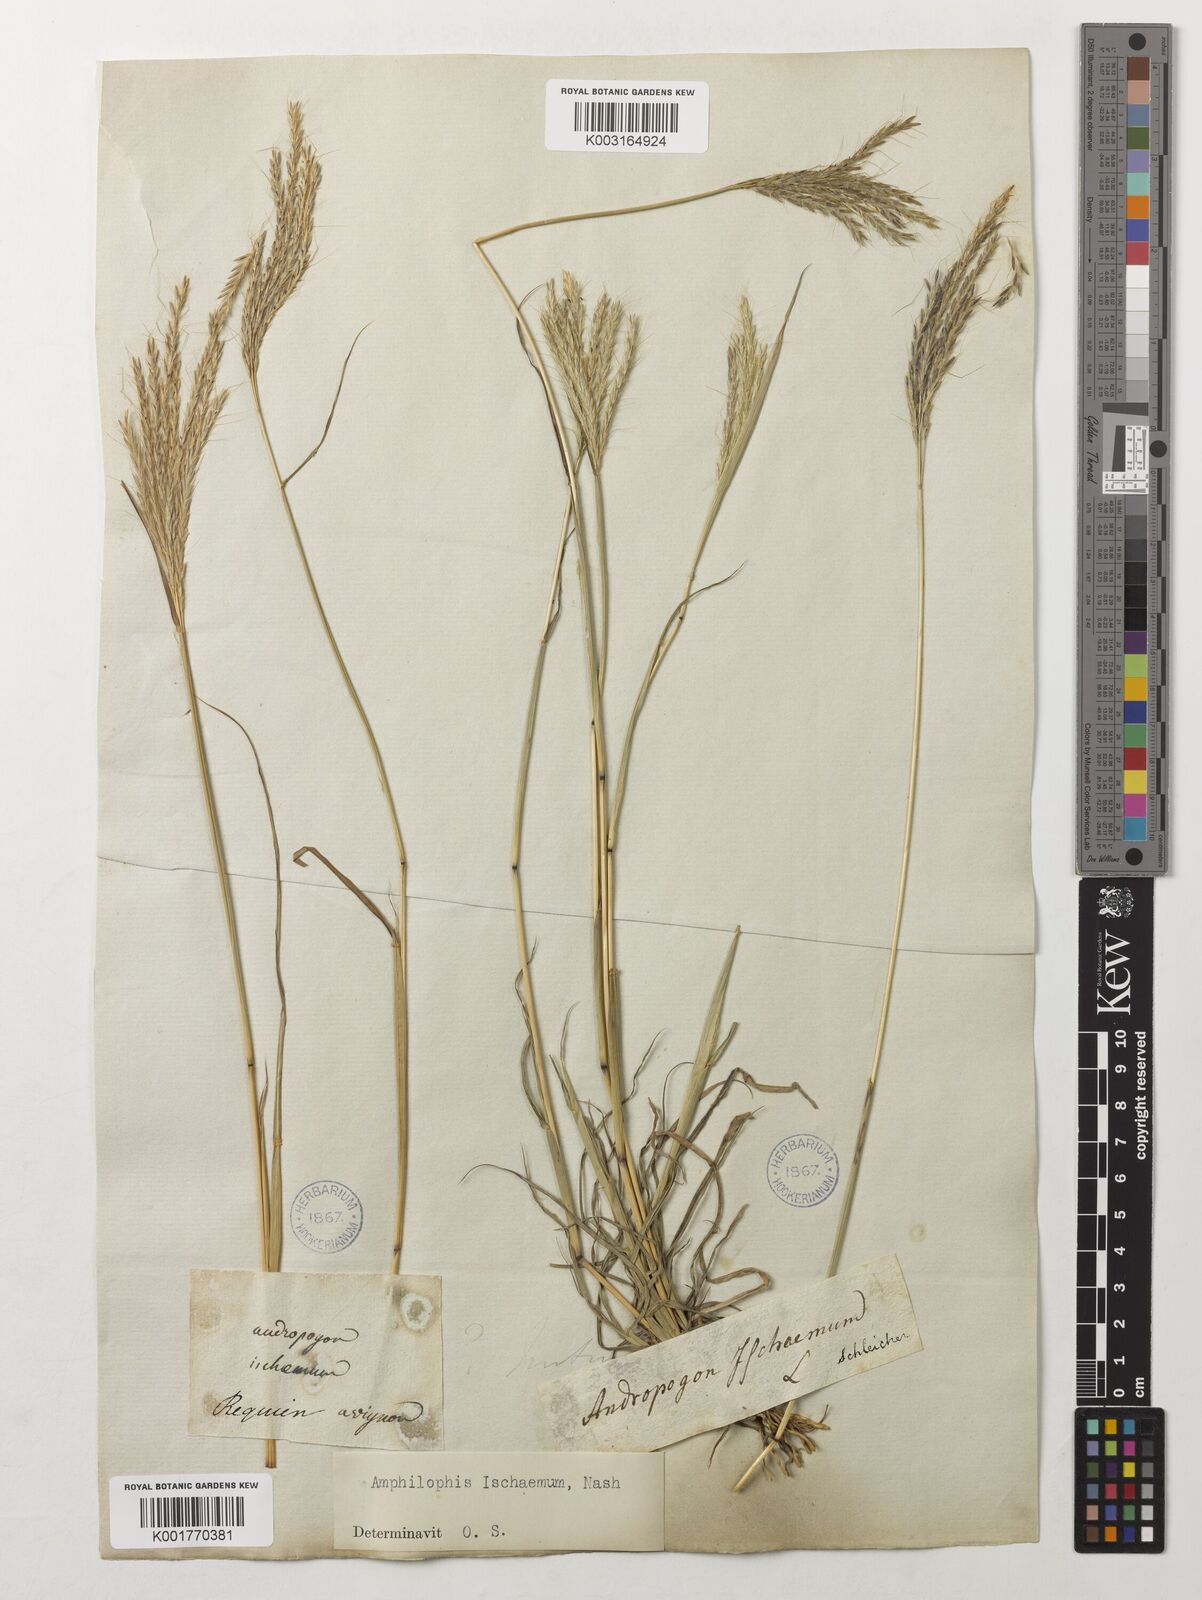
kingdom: Plantae
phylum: Tracheophyta
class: Liliopsida
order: Poales
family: Poaceae
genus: Bothriochloa
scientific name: Bothriochloa ischaemum
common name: Yellow bluestem
